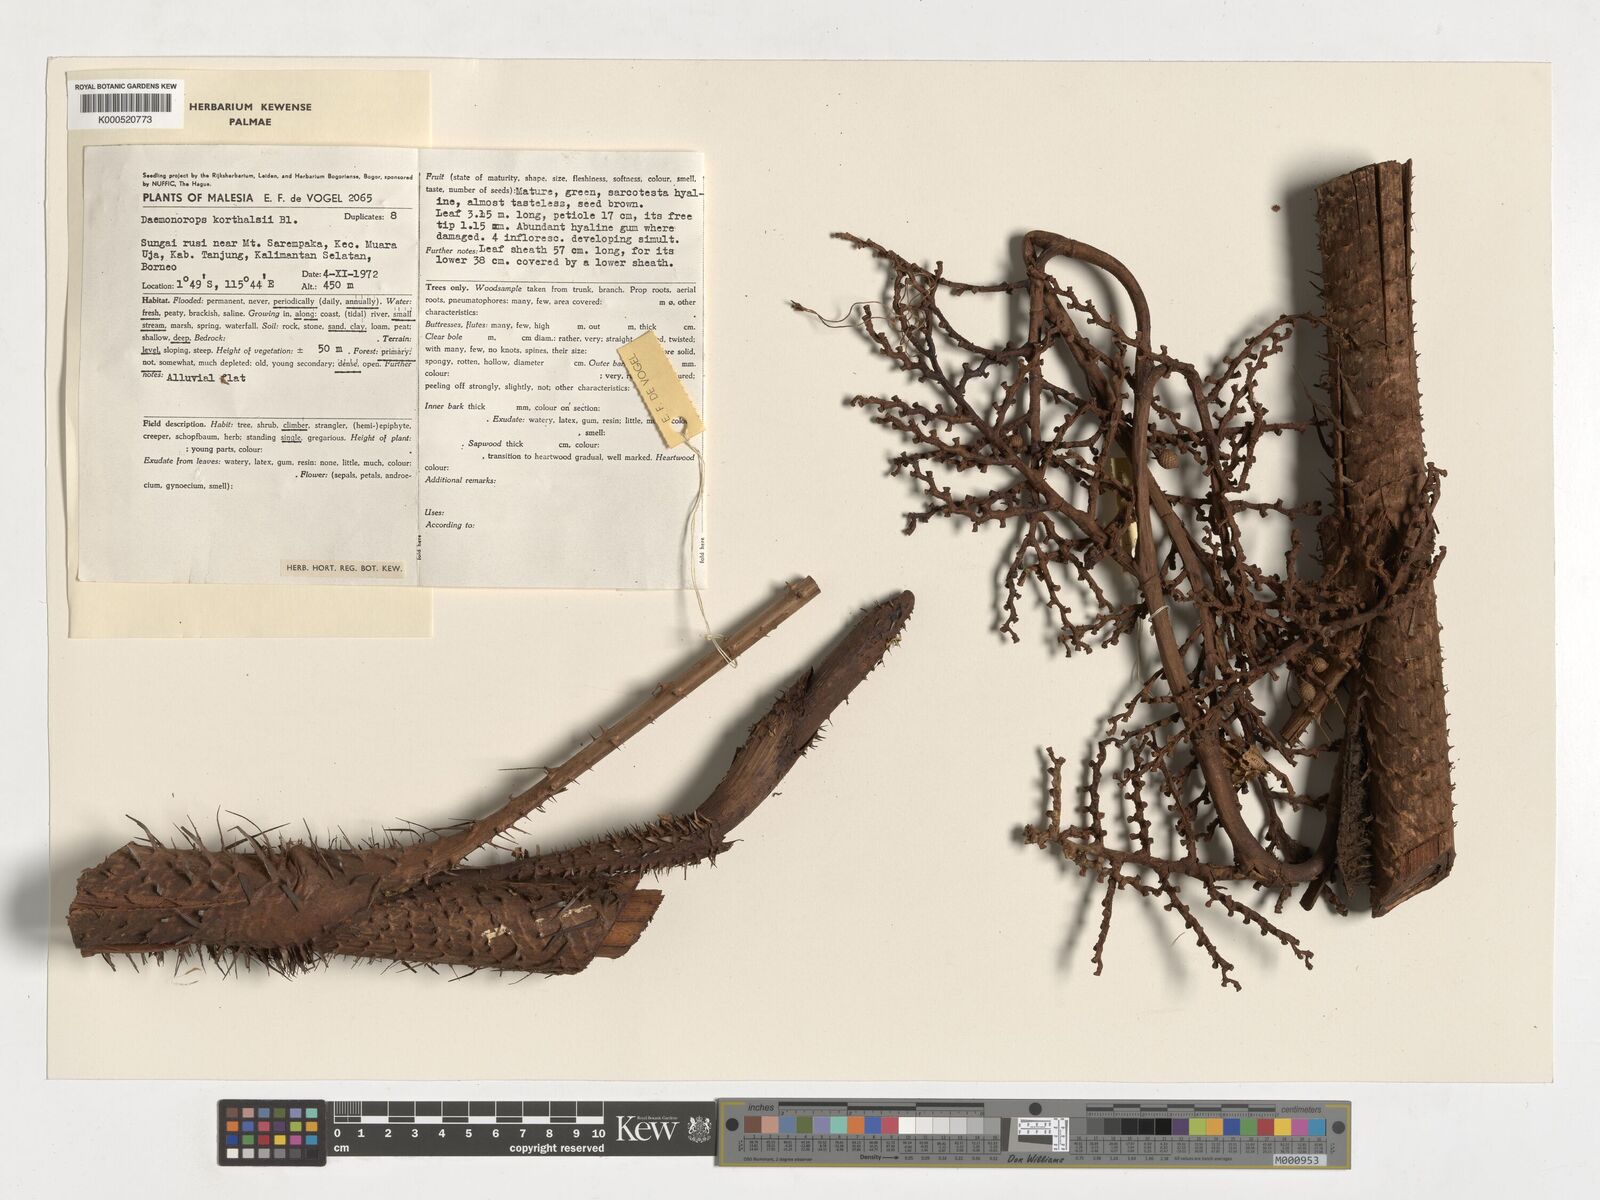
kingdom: Plantae
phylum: Tracheophyta
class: Liliopsida
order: Arecales
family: Arecaceae
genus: Calamus
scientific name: Calamus hirsutus
